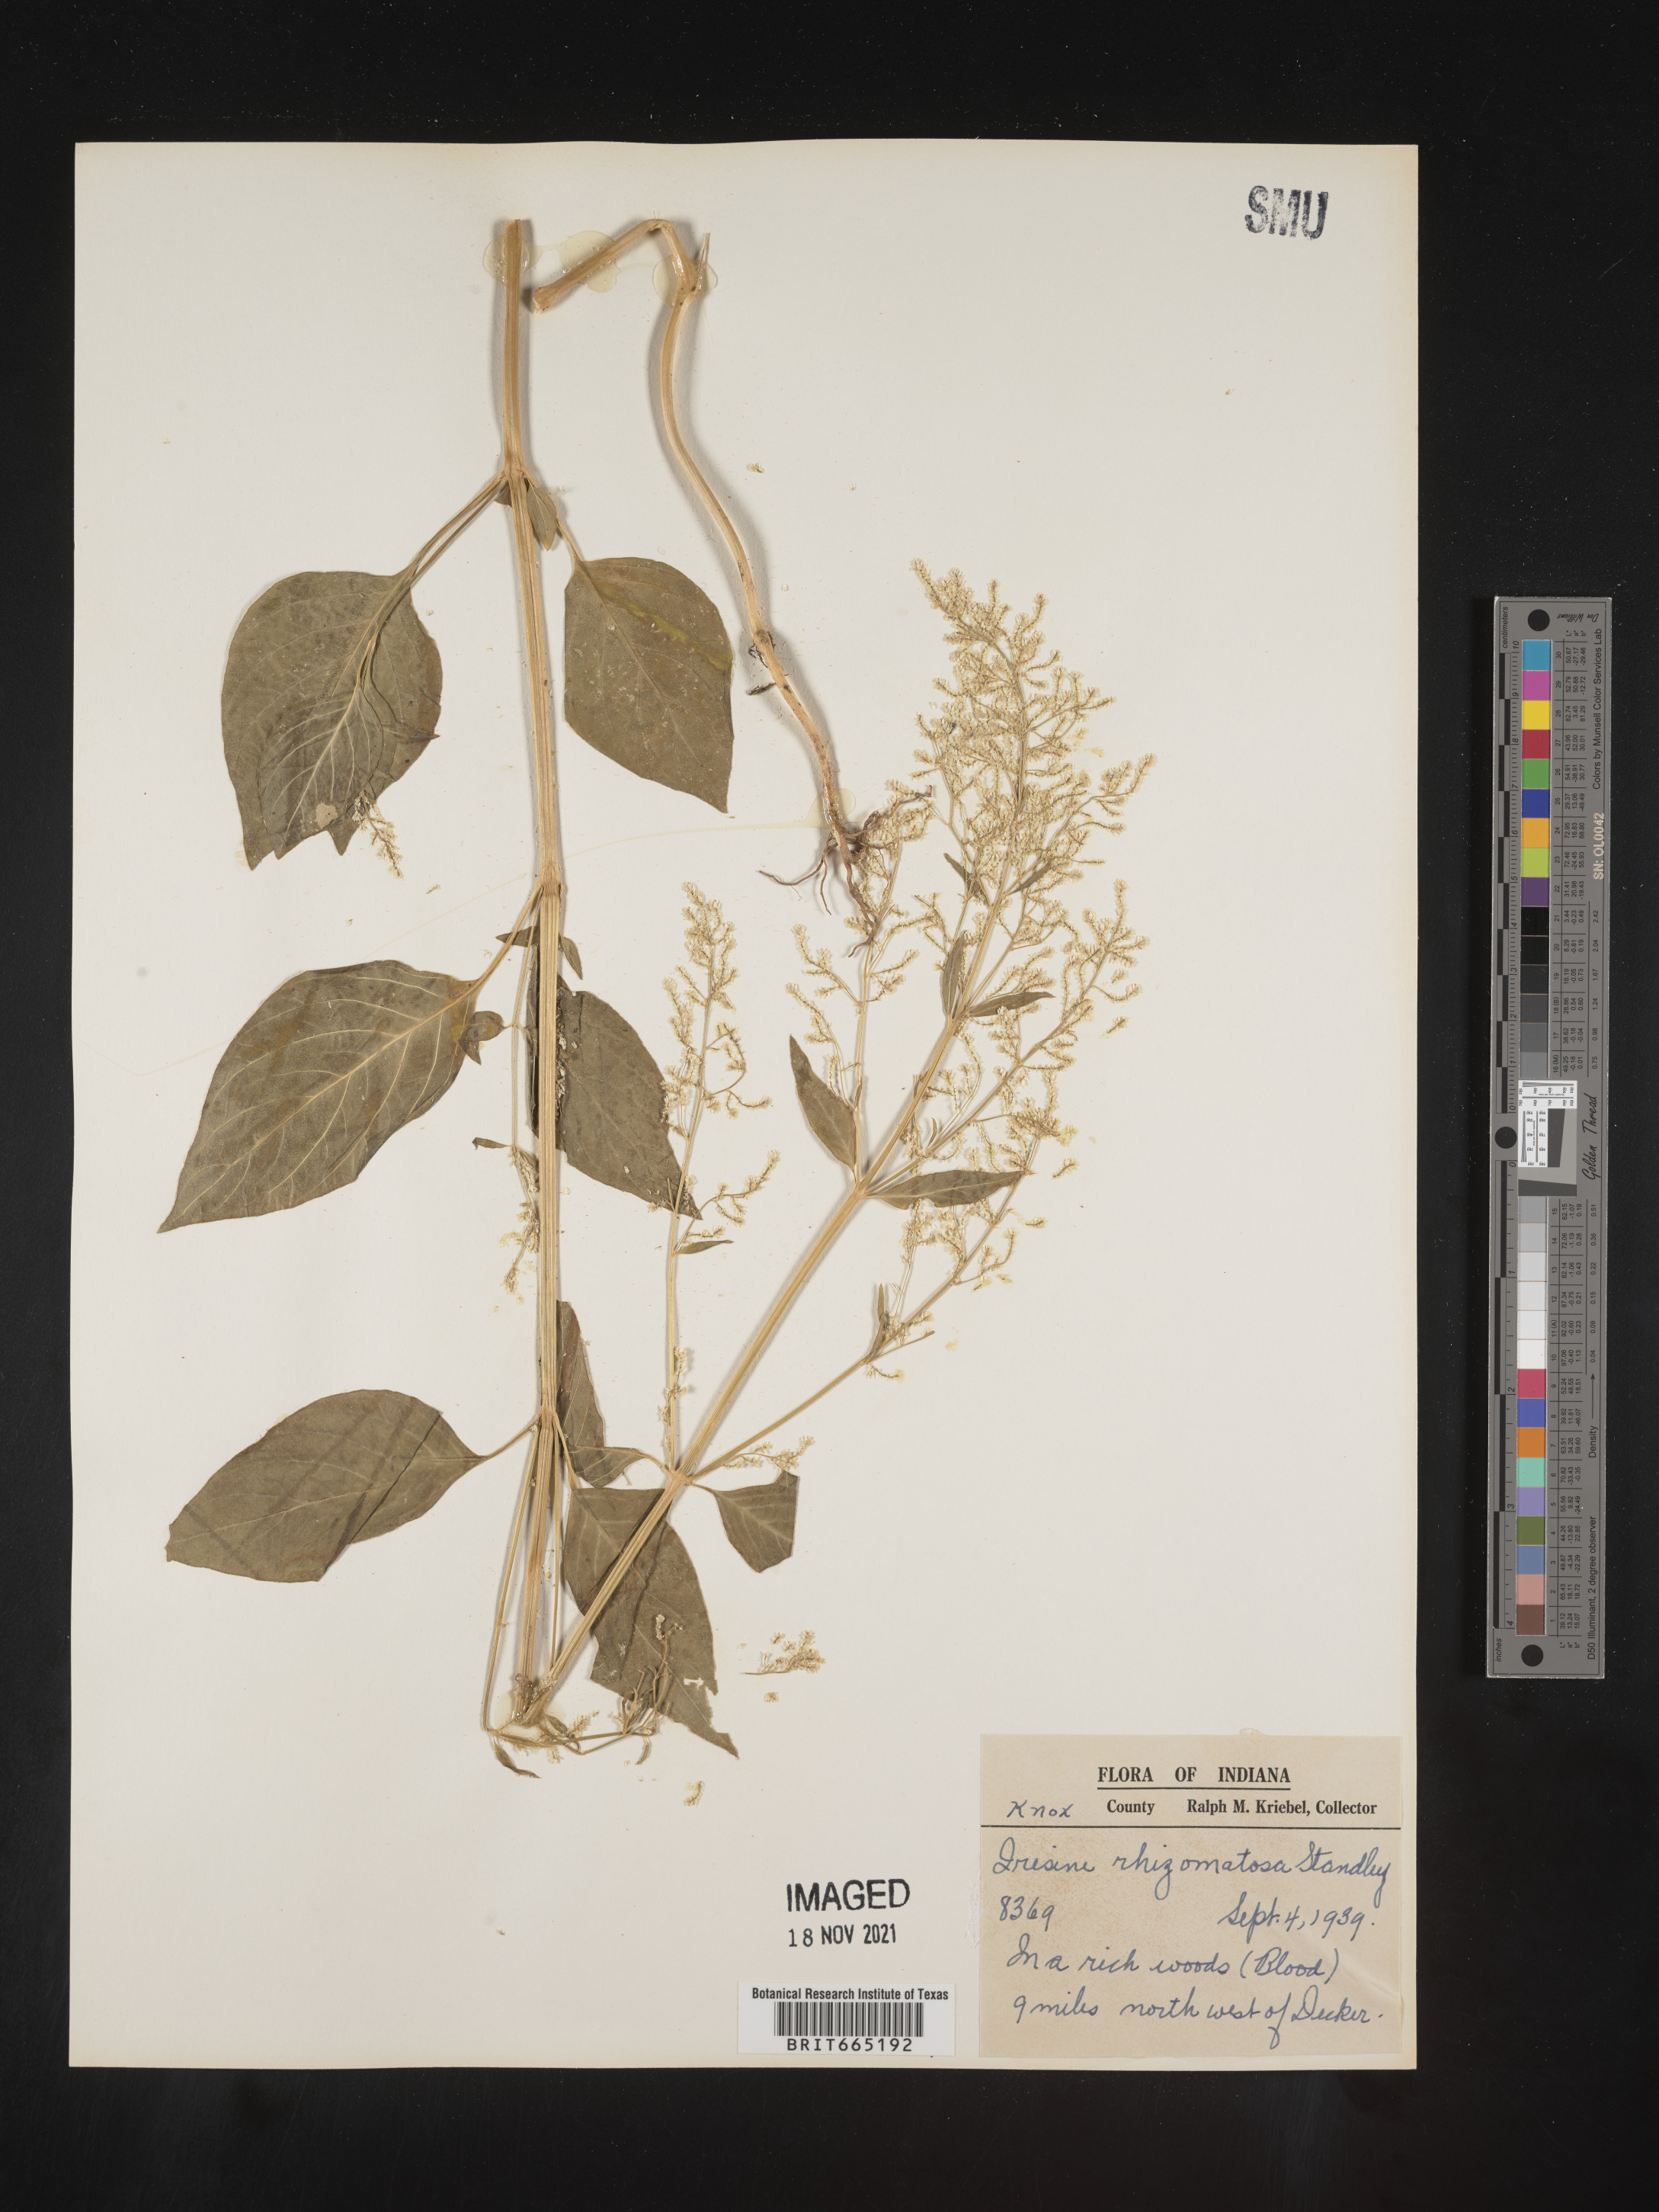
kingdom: Plantae
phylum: Tracheophyta
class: Magnoliopsida
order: Caryophyllales
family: Amaranthaceae
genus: Iresine
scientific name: Iresine rhizomatosa
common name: Juda's-bush
